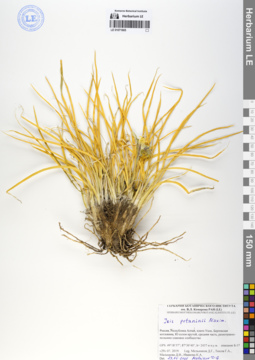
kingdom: Plantae
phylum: Tracheophyta
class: Liliopsida
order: Asparagales
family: Iridaceae
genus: Iris
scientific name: Iris potaninii
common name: Curl-sheath iris
